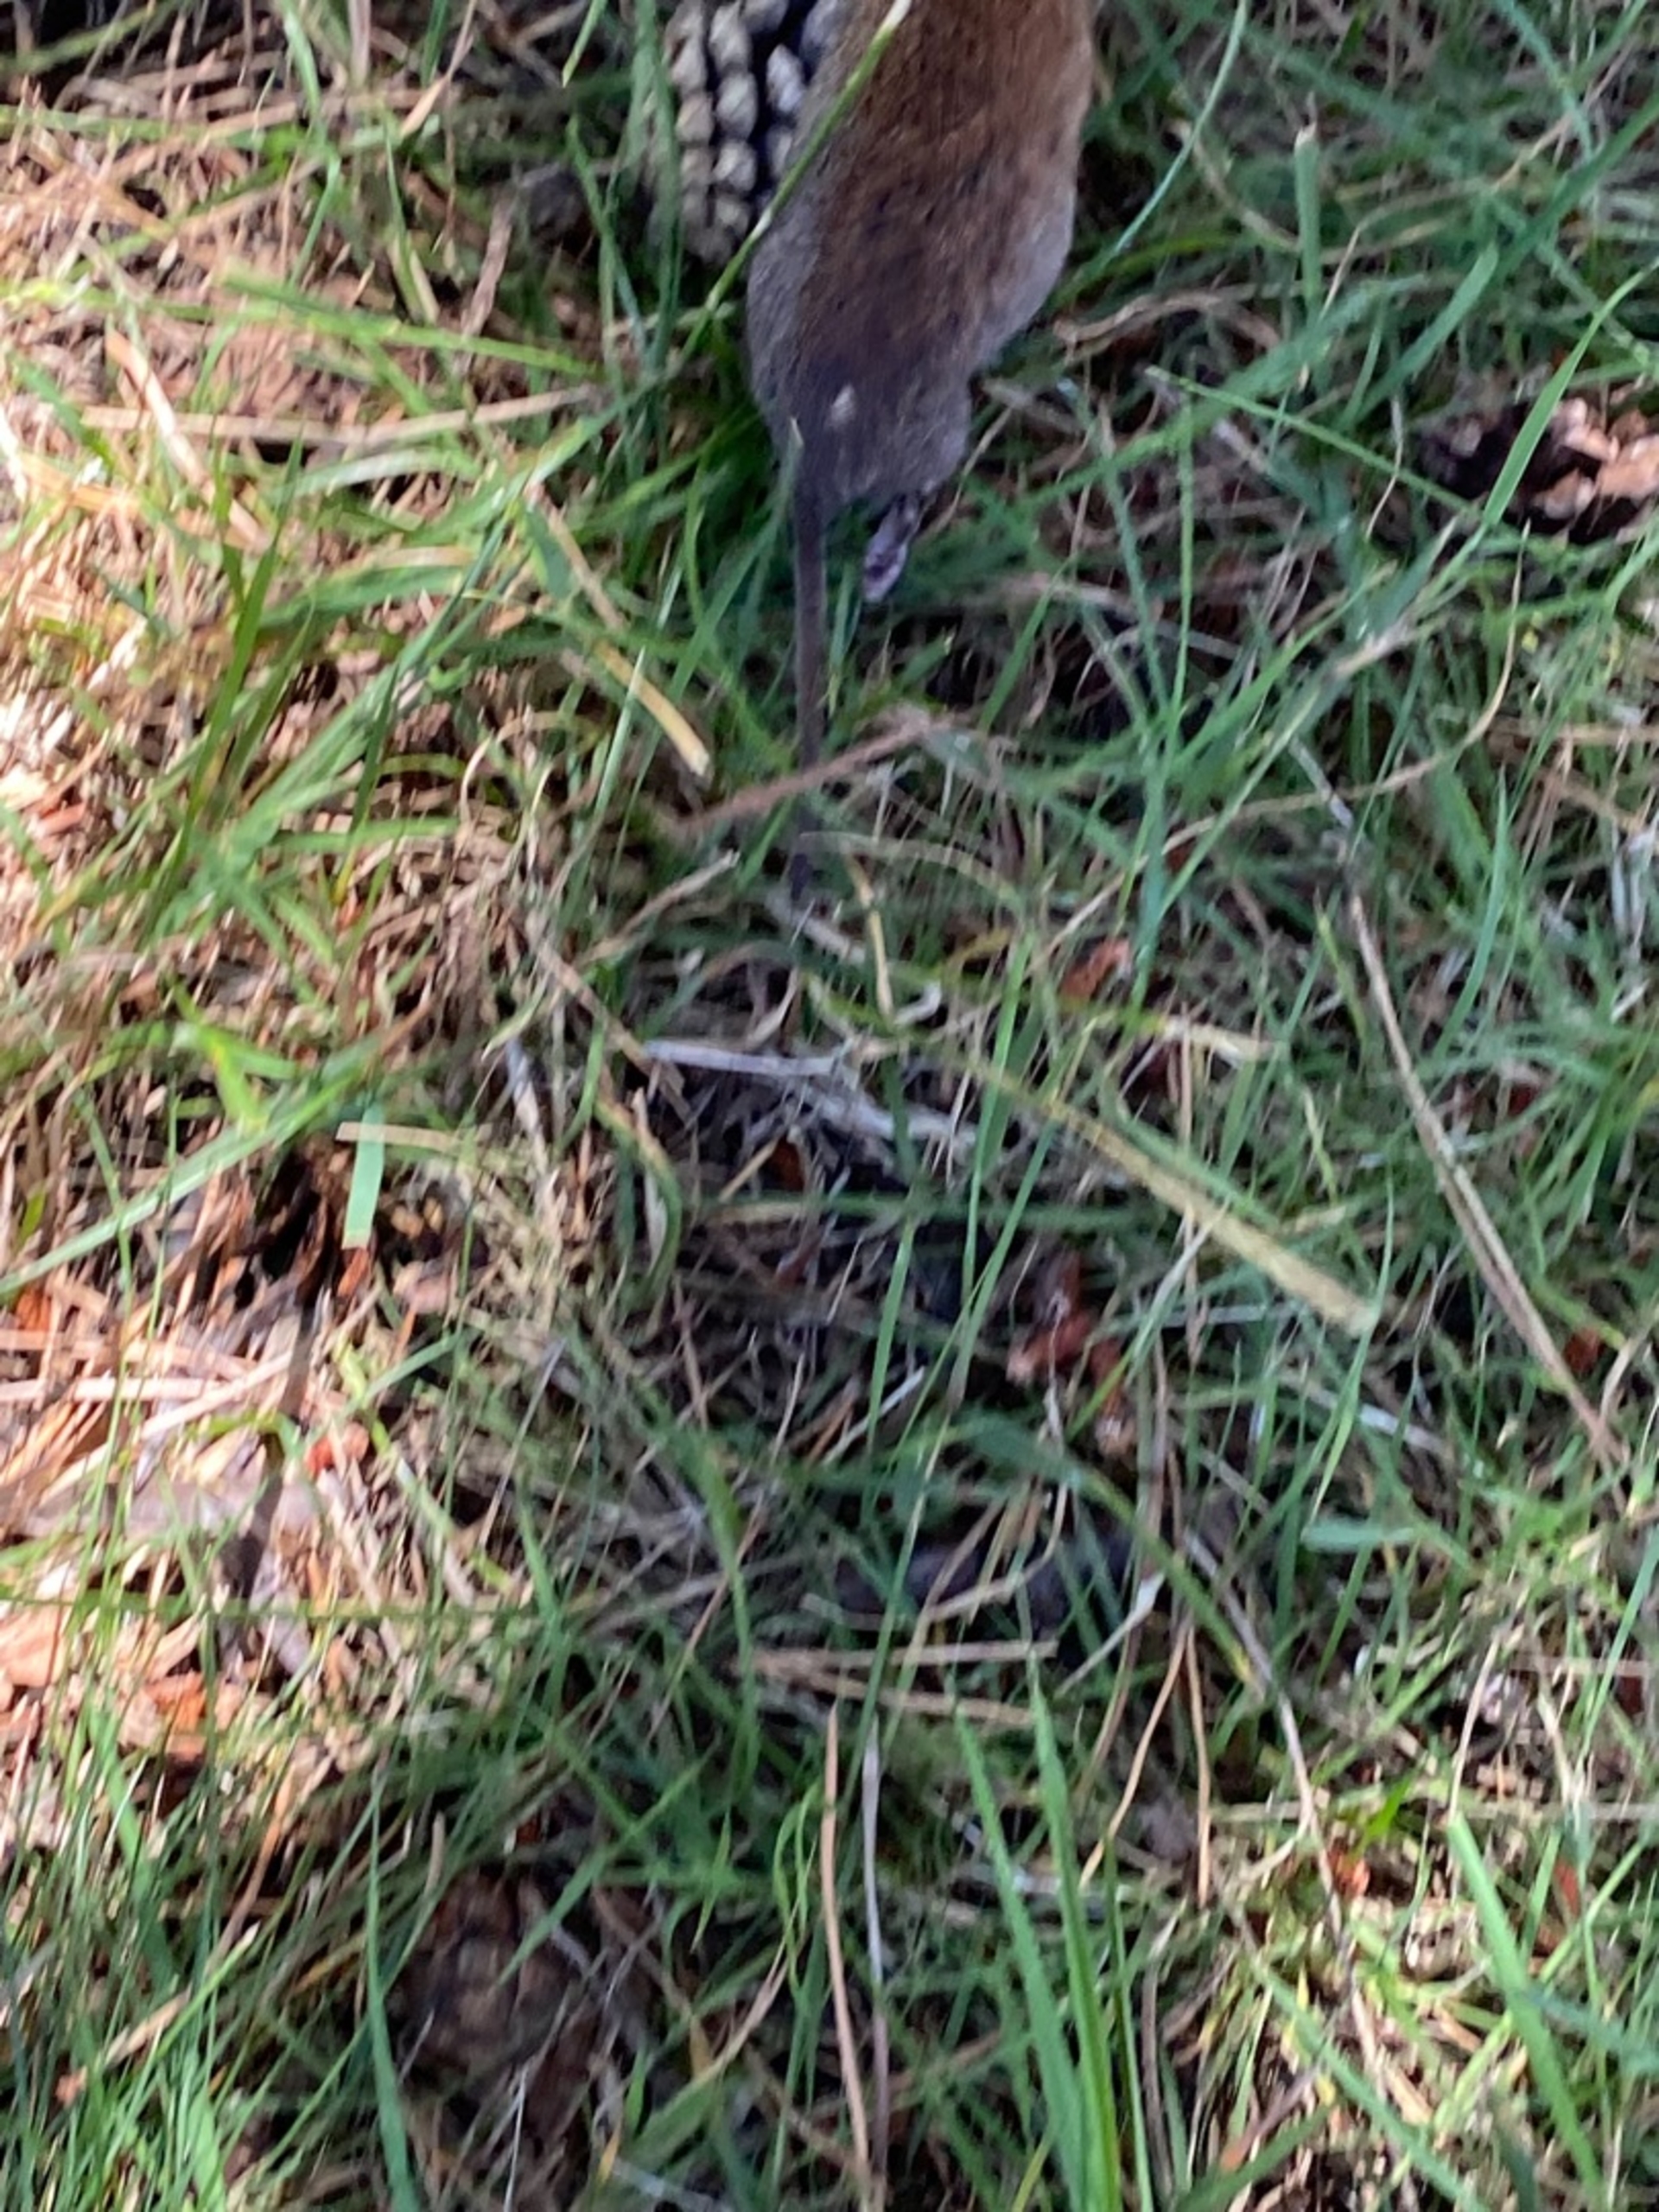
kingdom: Animalia
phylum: Chordata
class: Mammalia
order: Rodentia
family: Cricetidae
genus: Myodes
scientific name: Myodes glareolus
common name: Rødmus
